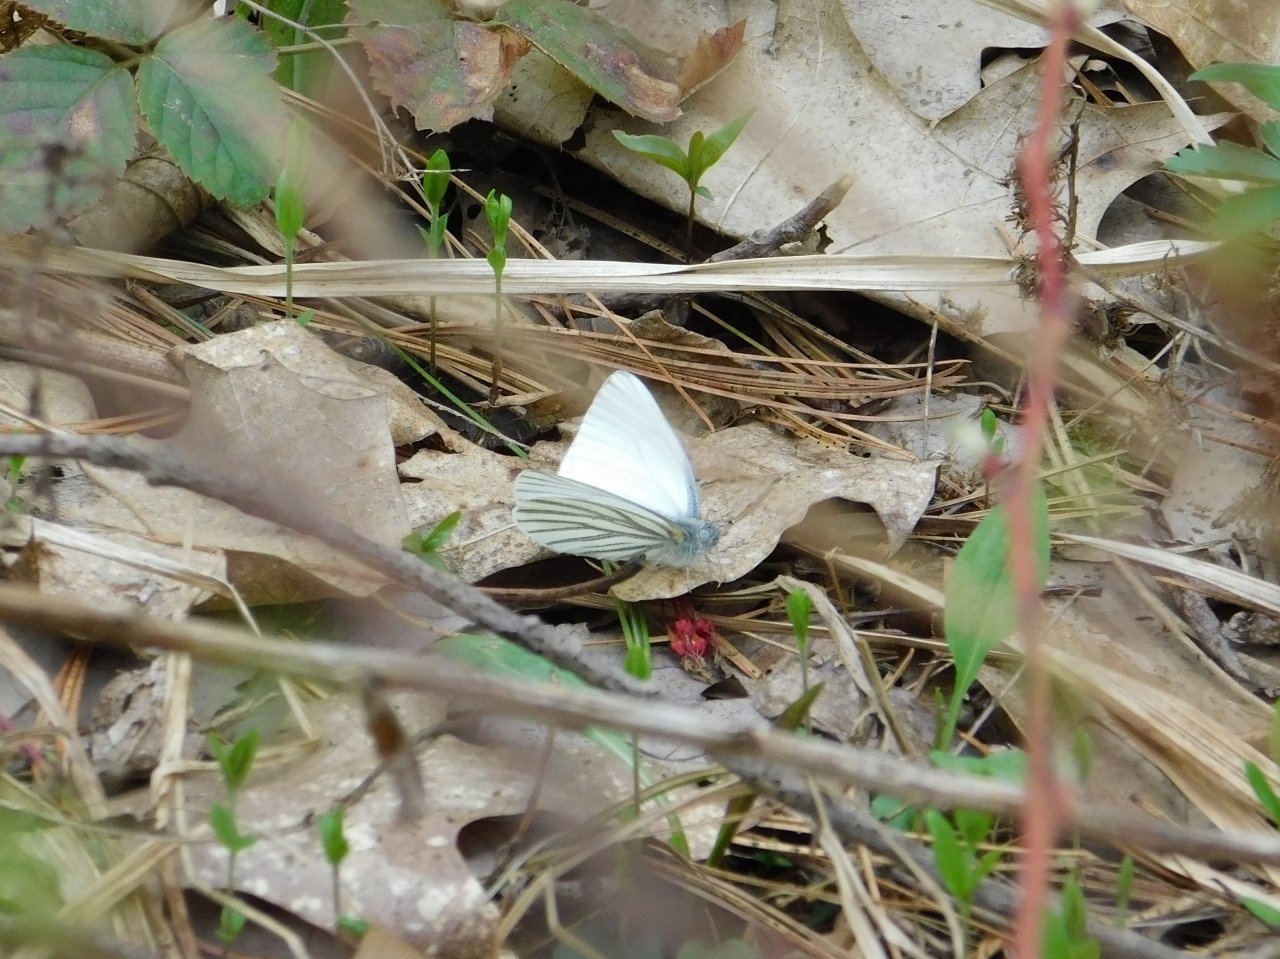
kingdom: Animalia
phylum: Arthropoda
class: Insecta
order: Lepidoptera
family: Pieridae
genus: Pieris
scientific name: Pieris oleracea
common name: Mustard White
